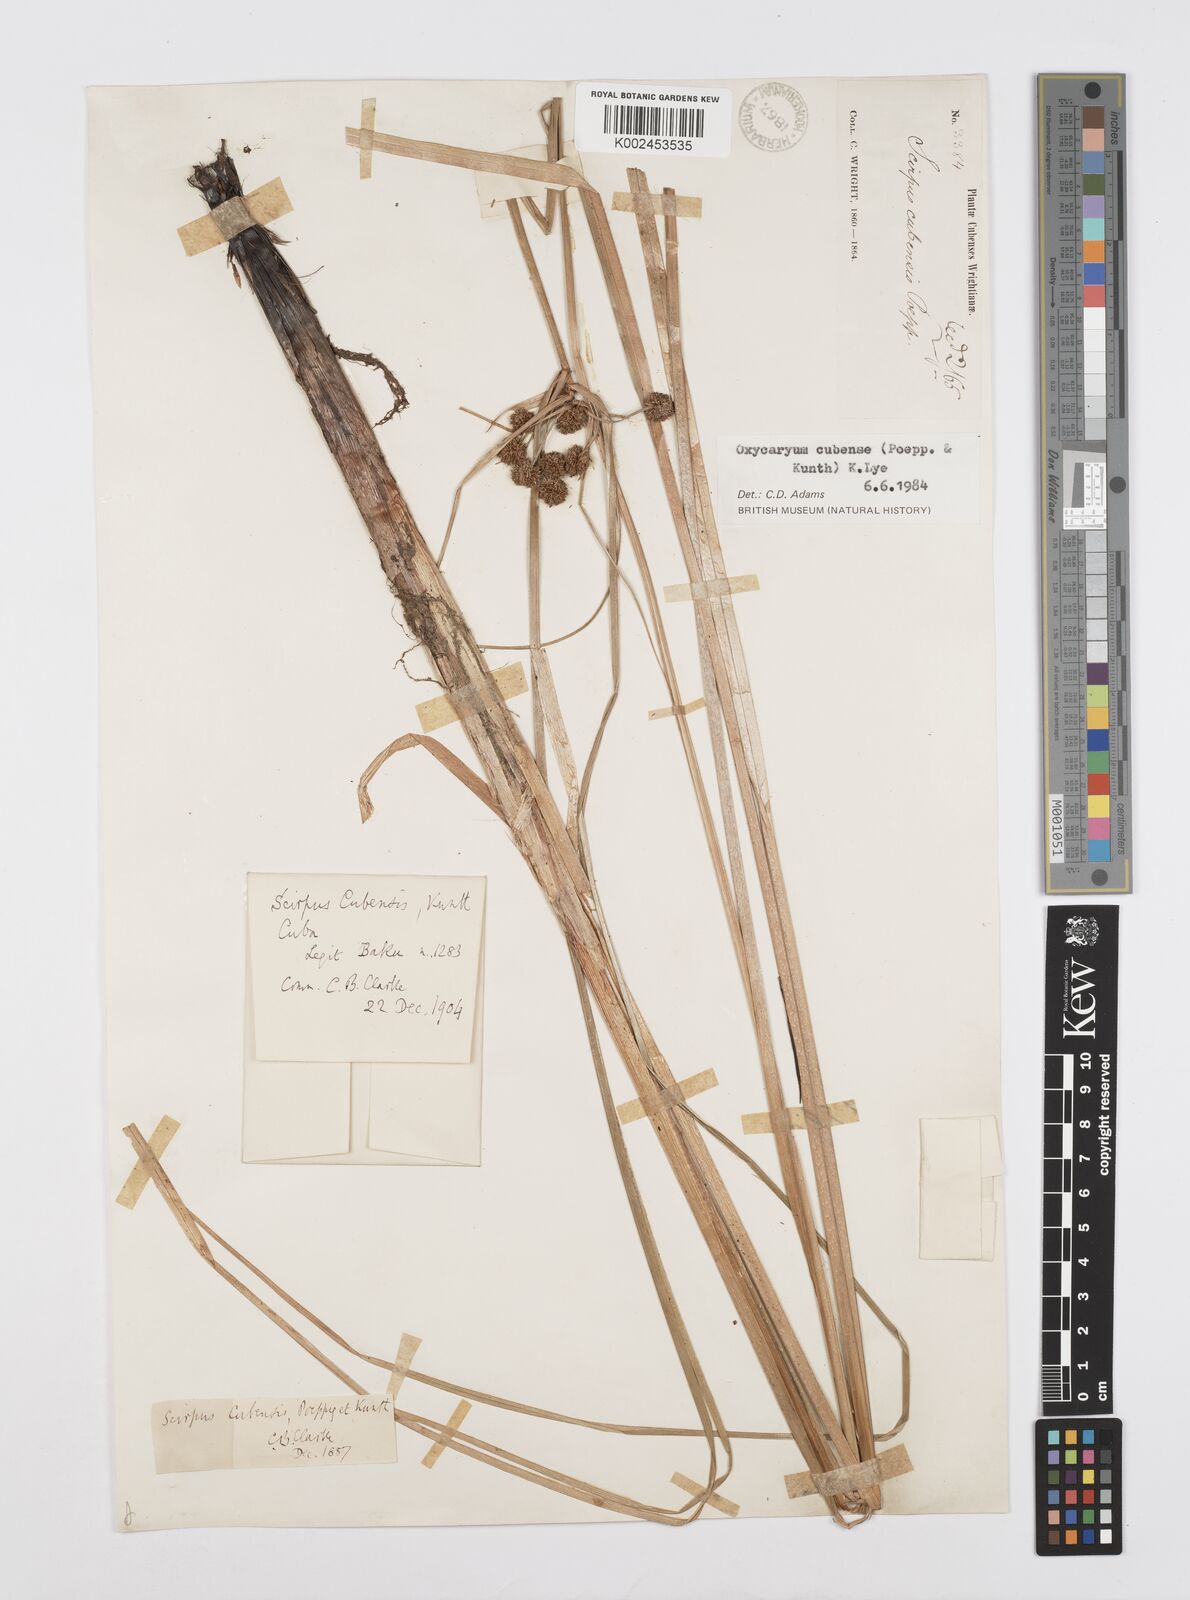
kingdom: Plantae
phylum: Tracheophyta
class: Liliopsida
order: Poales
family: Cyperaceae
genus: Cyperus
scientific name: Cyperus elegans
